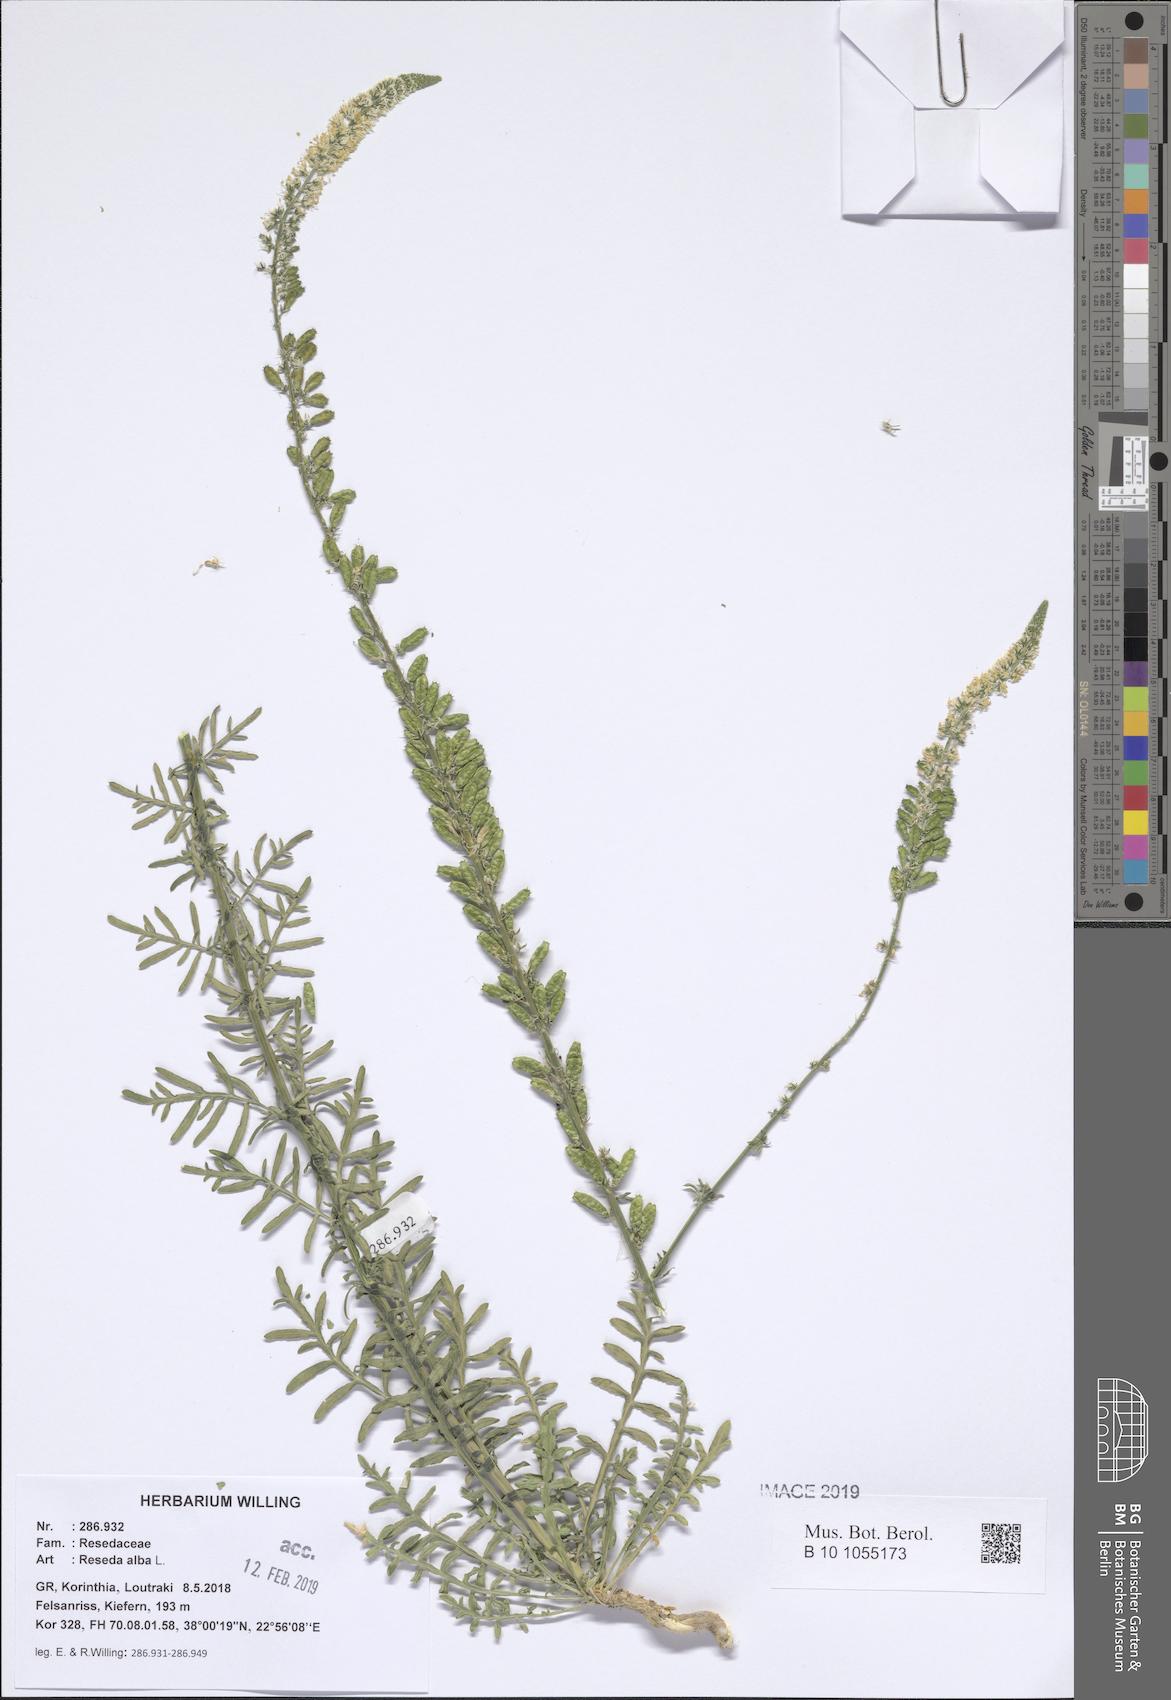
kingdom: Plantae
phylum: Tracheophyta
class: Magnoliopsida
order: Brassicales
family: Resedaceae
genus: Reseda
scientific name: Reseda alba
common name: White mignonette
